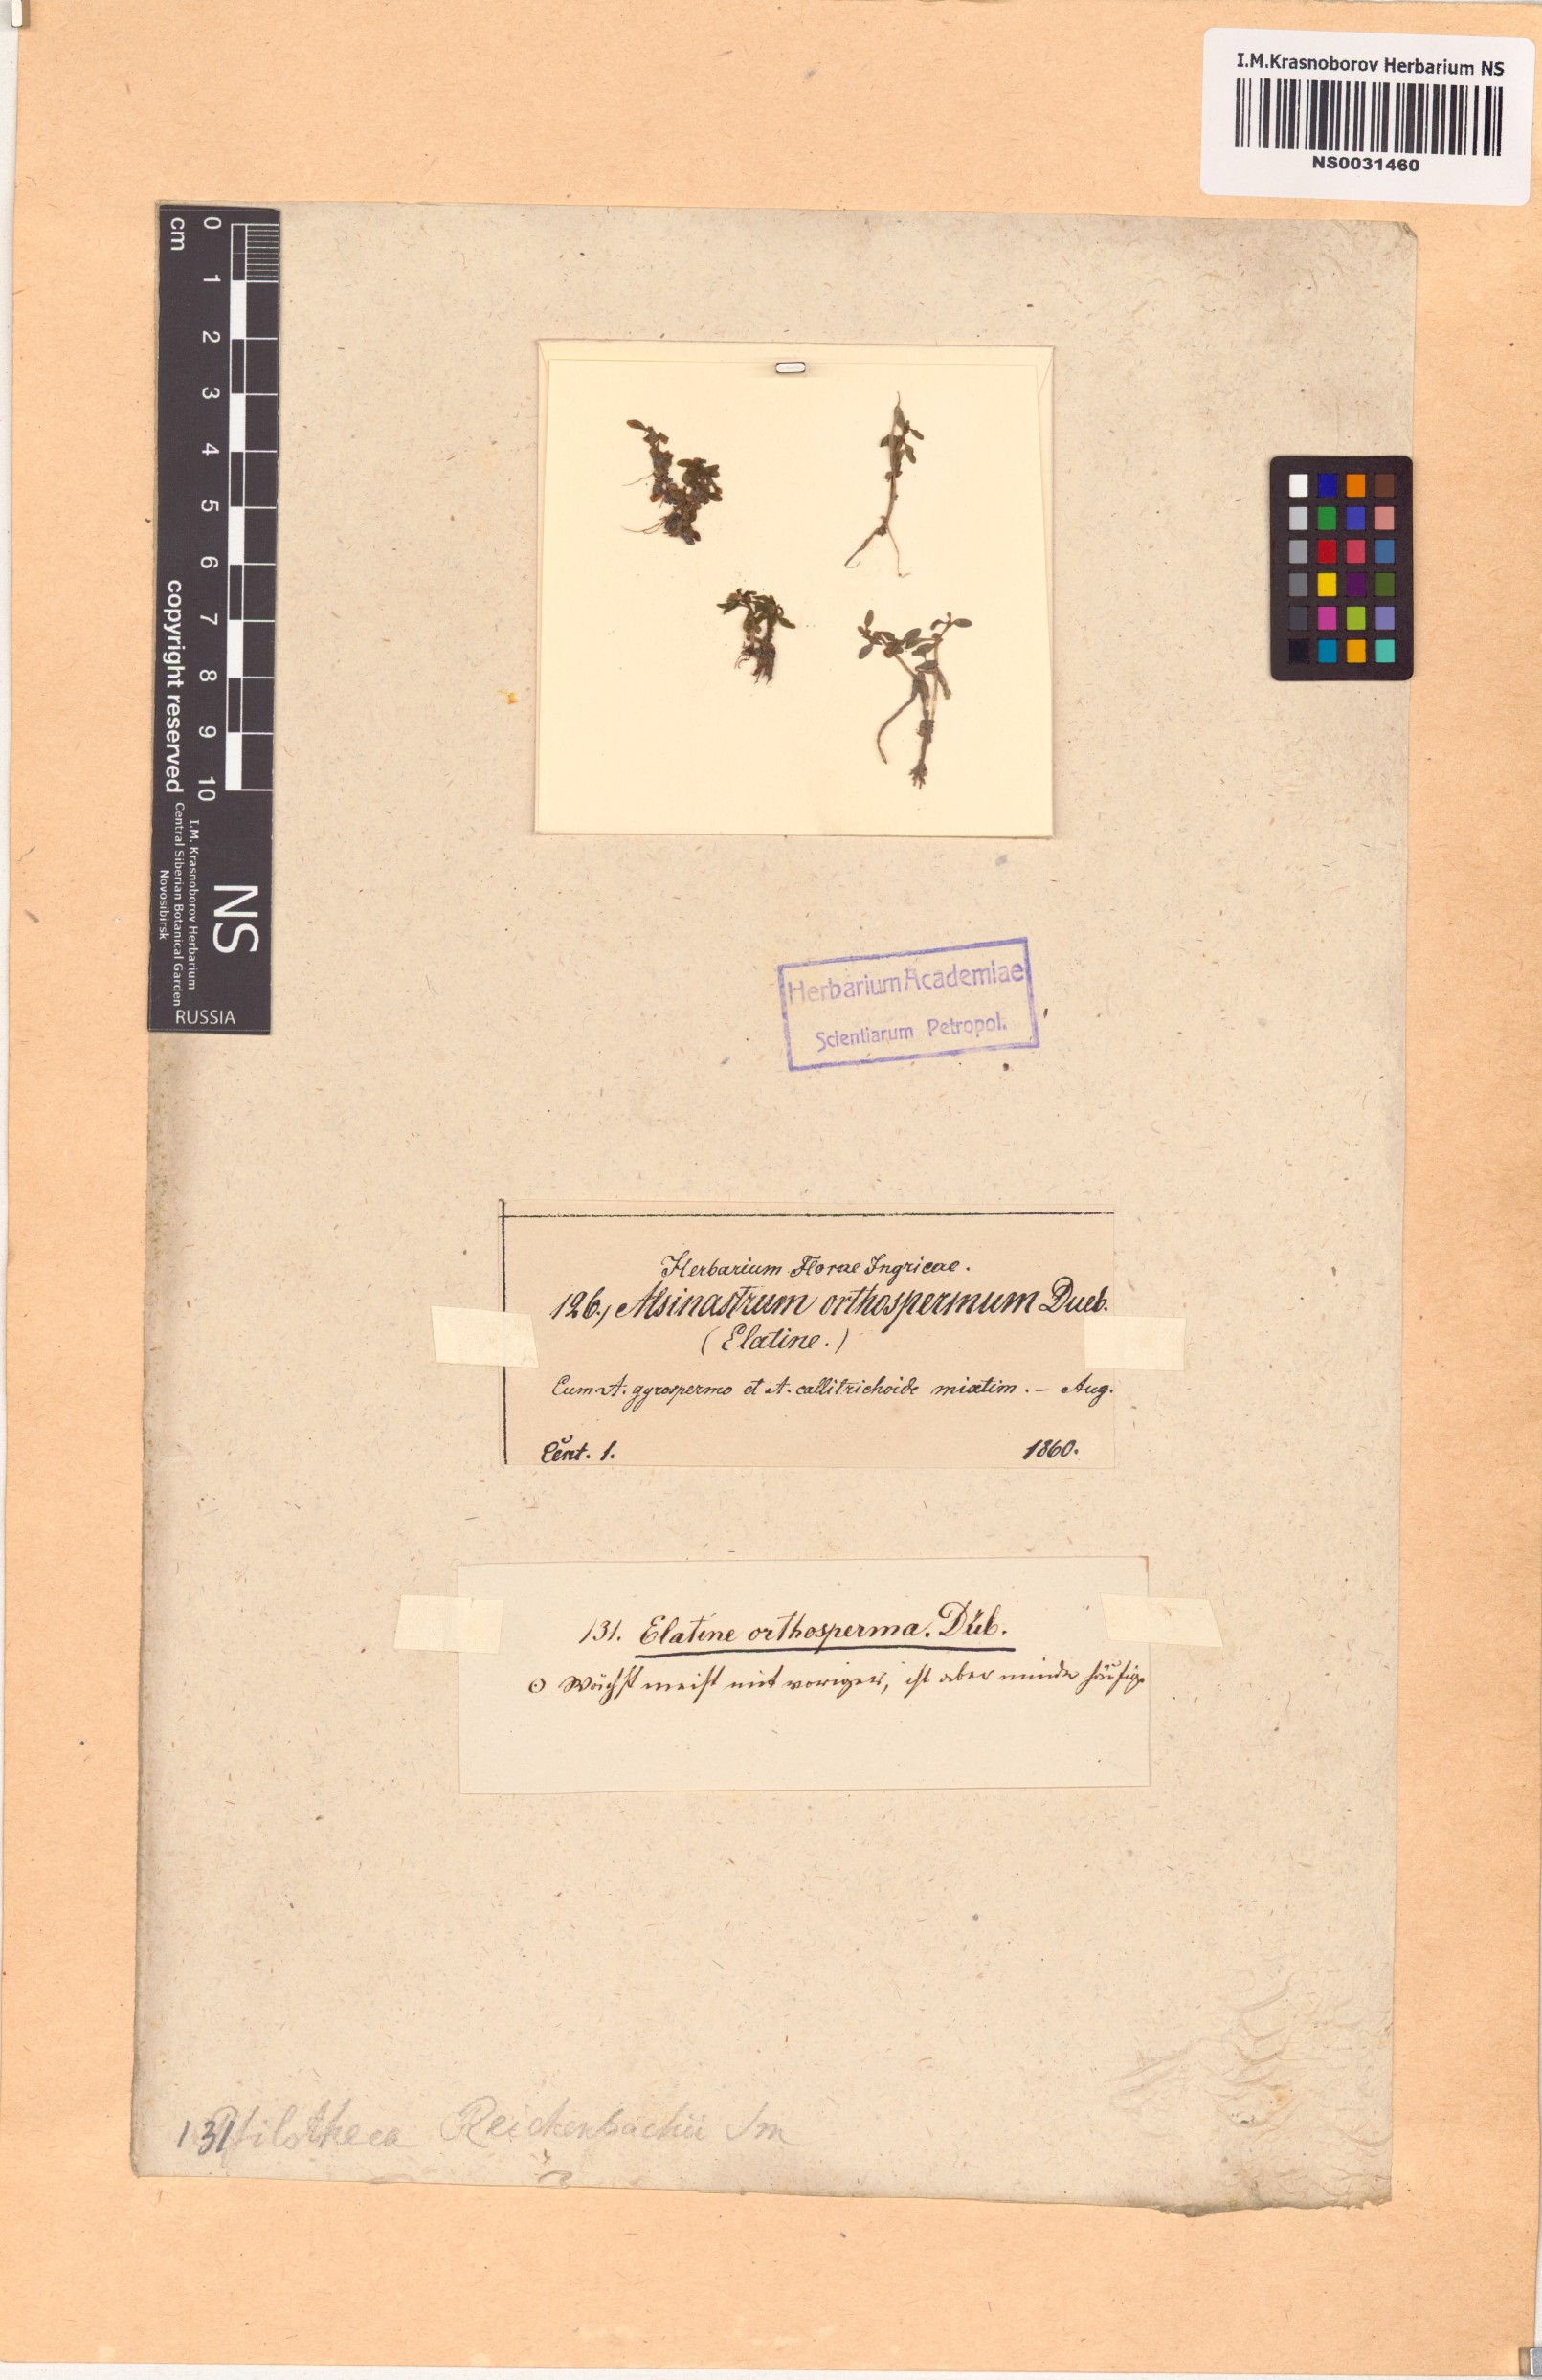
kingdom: Plantae
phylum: Tracheophyta
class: Magnoliopsida
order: Malpighiales
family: Elatinaceae
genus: Elatine
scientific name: Elatine orthosperma
